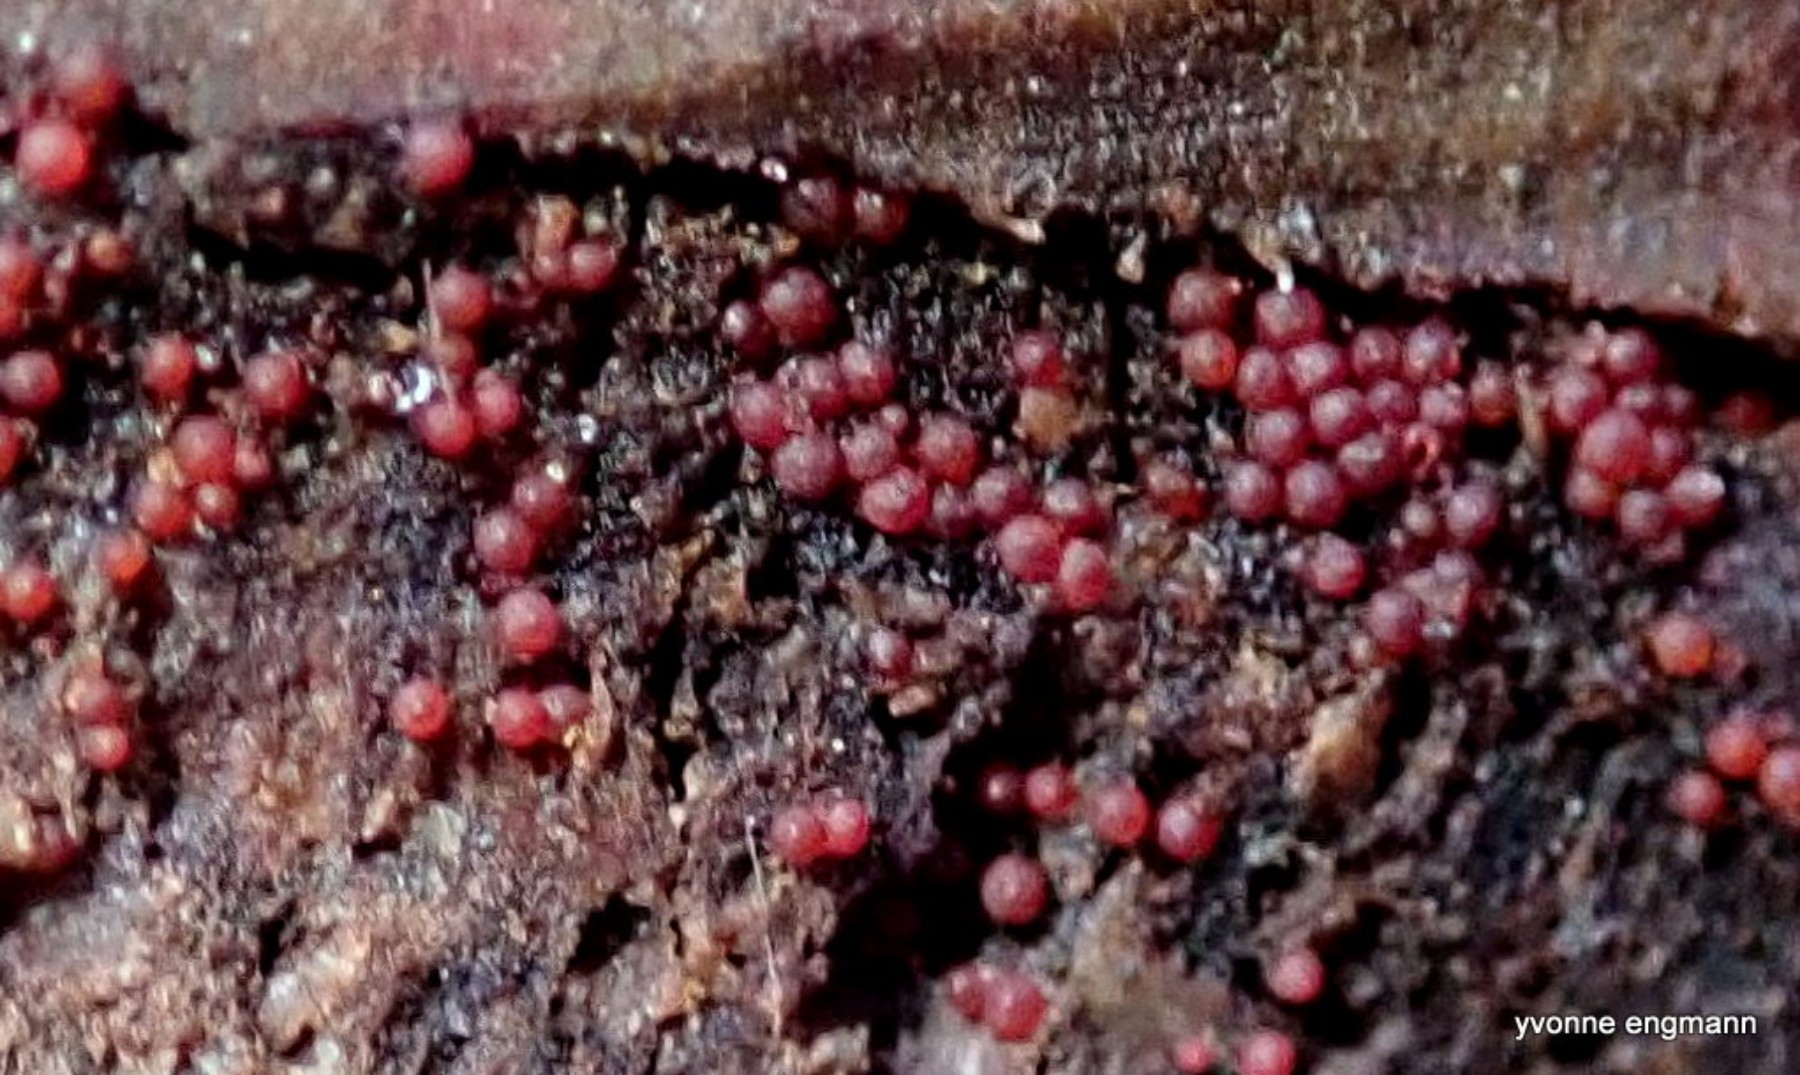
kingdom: Fungi
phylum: Ascomycota
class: Sordariomycetes
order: Hypocreales
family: Nectriaceae
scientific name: Nectriaceae
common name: cinnobersvampfamilien
